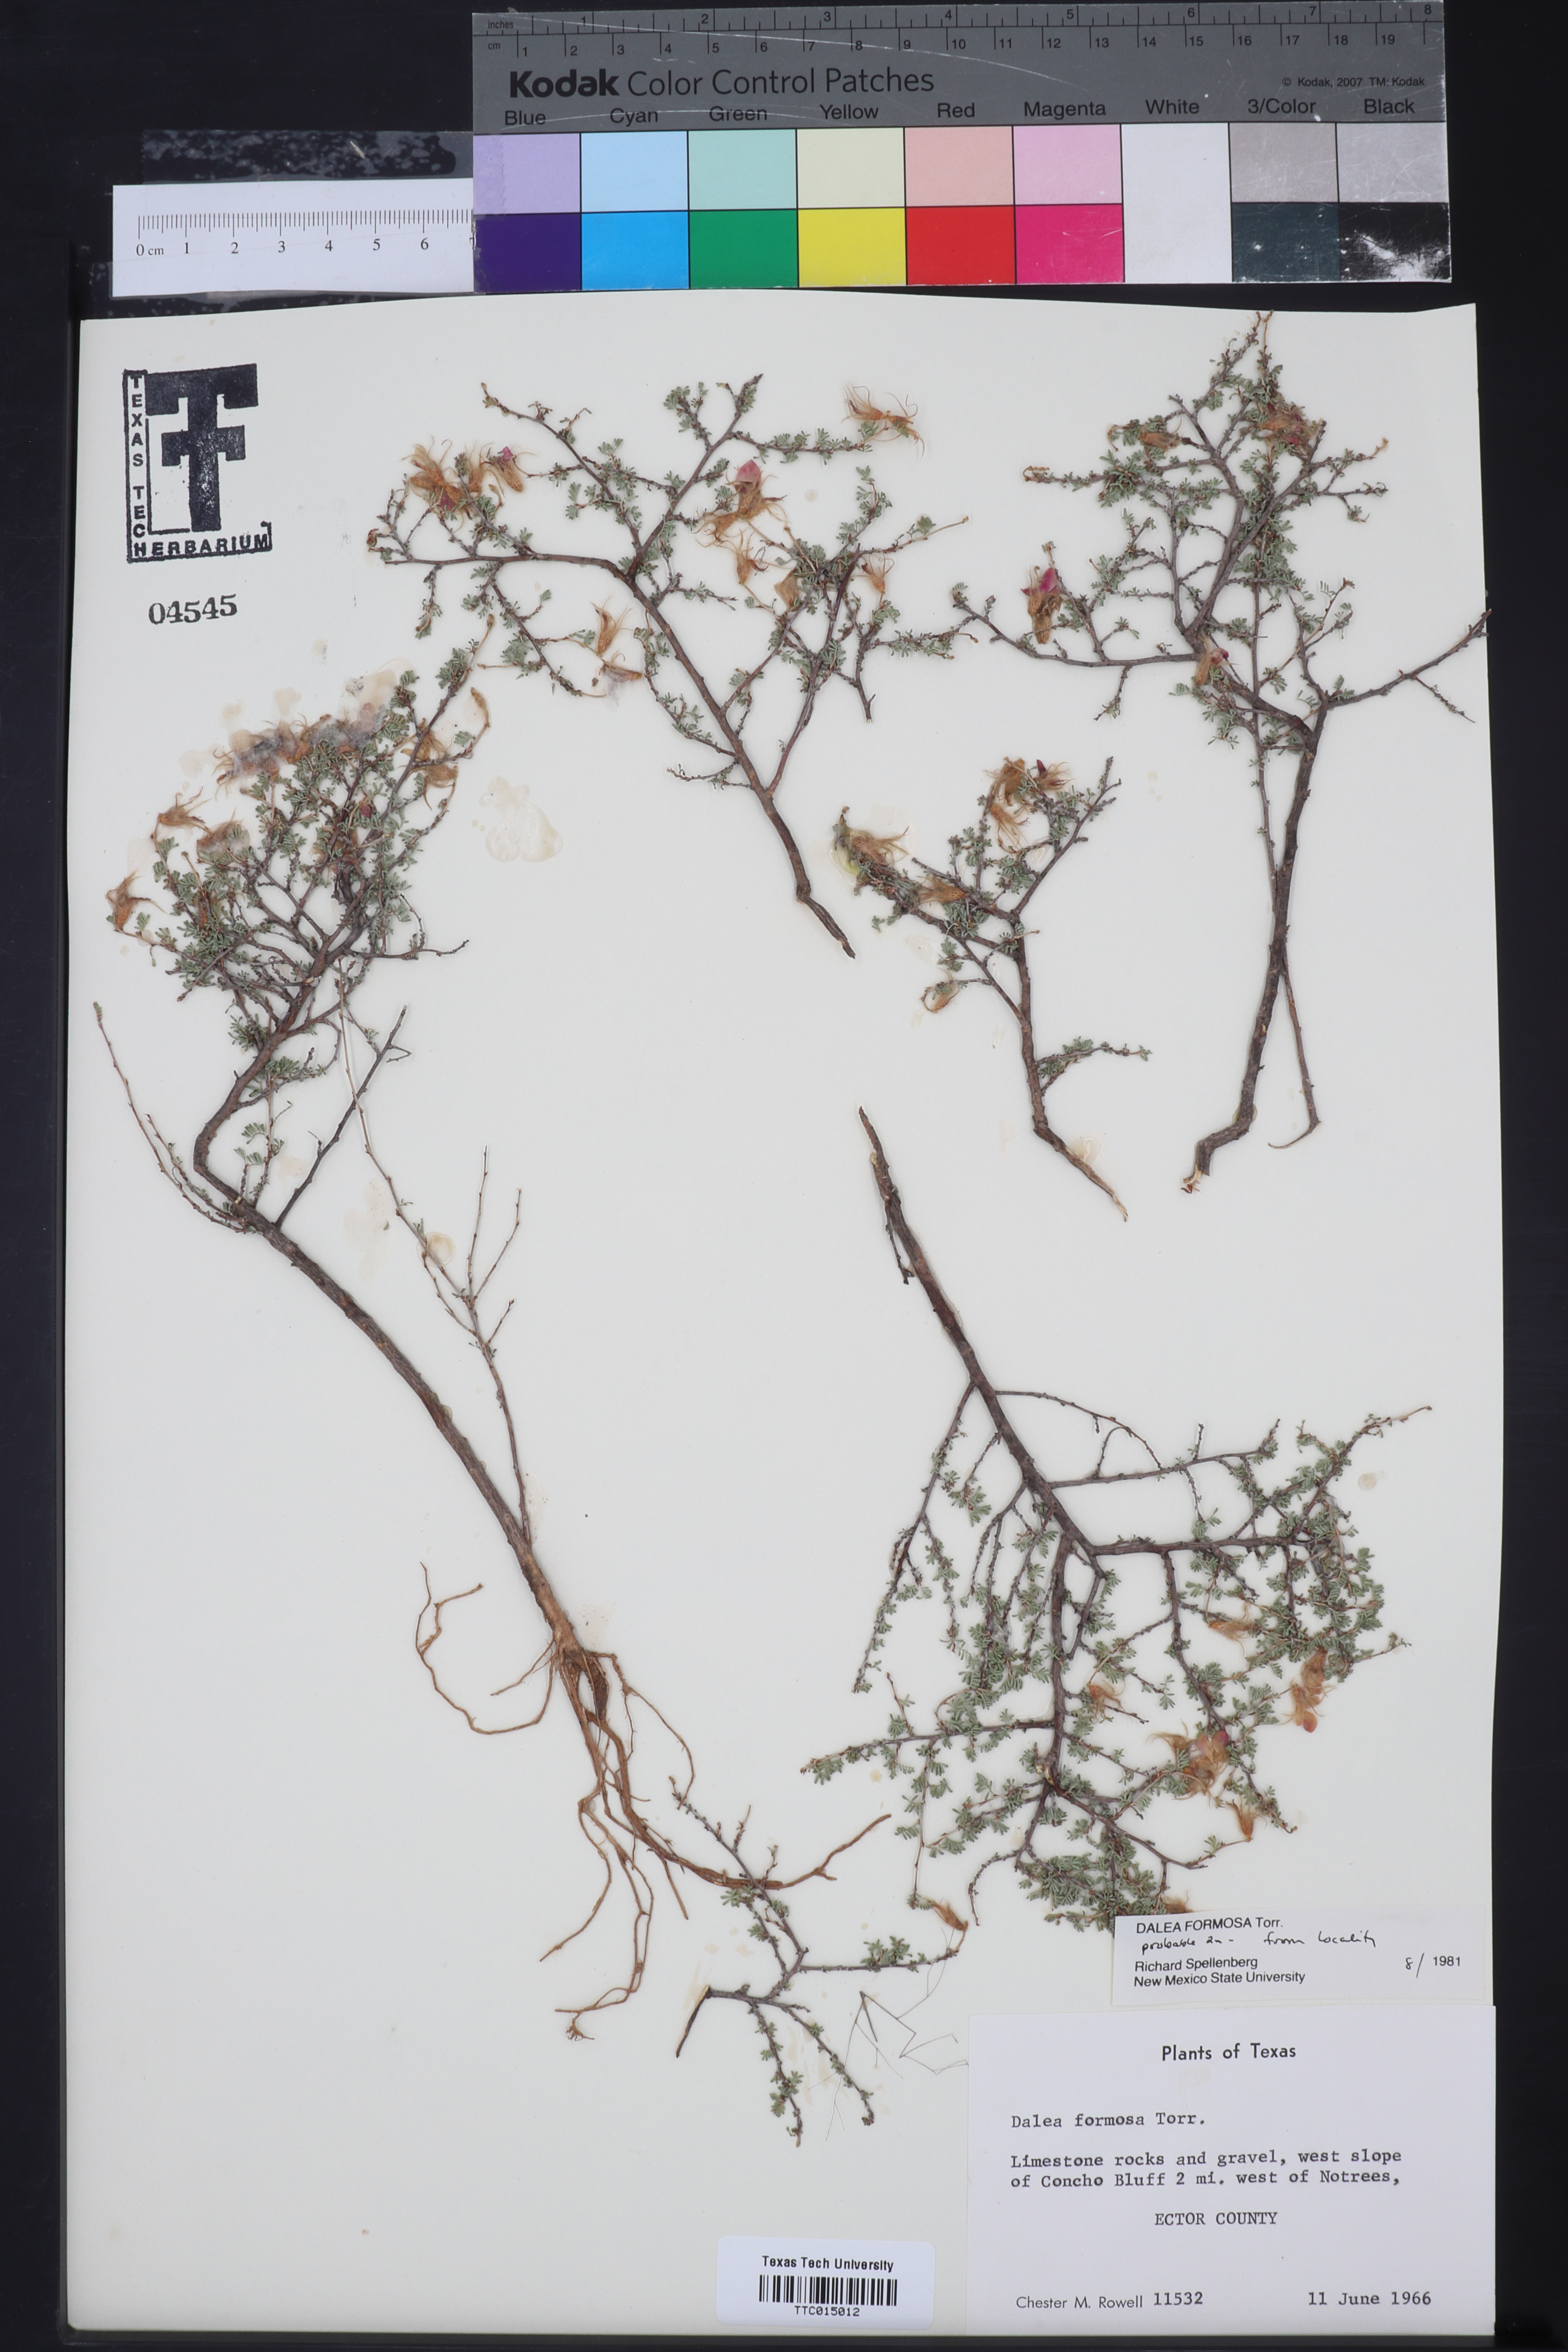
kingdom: Plantae
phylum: Tracheophyta
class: Magnoliopsida
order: Fabales
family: Fabaceae
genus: Dalea
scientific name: Dalea formosa
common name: Feather-plume dalea
